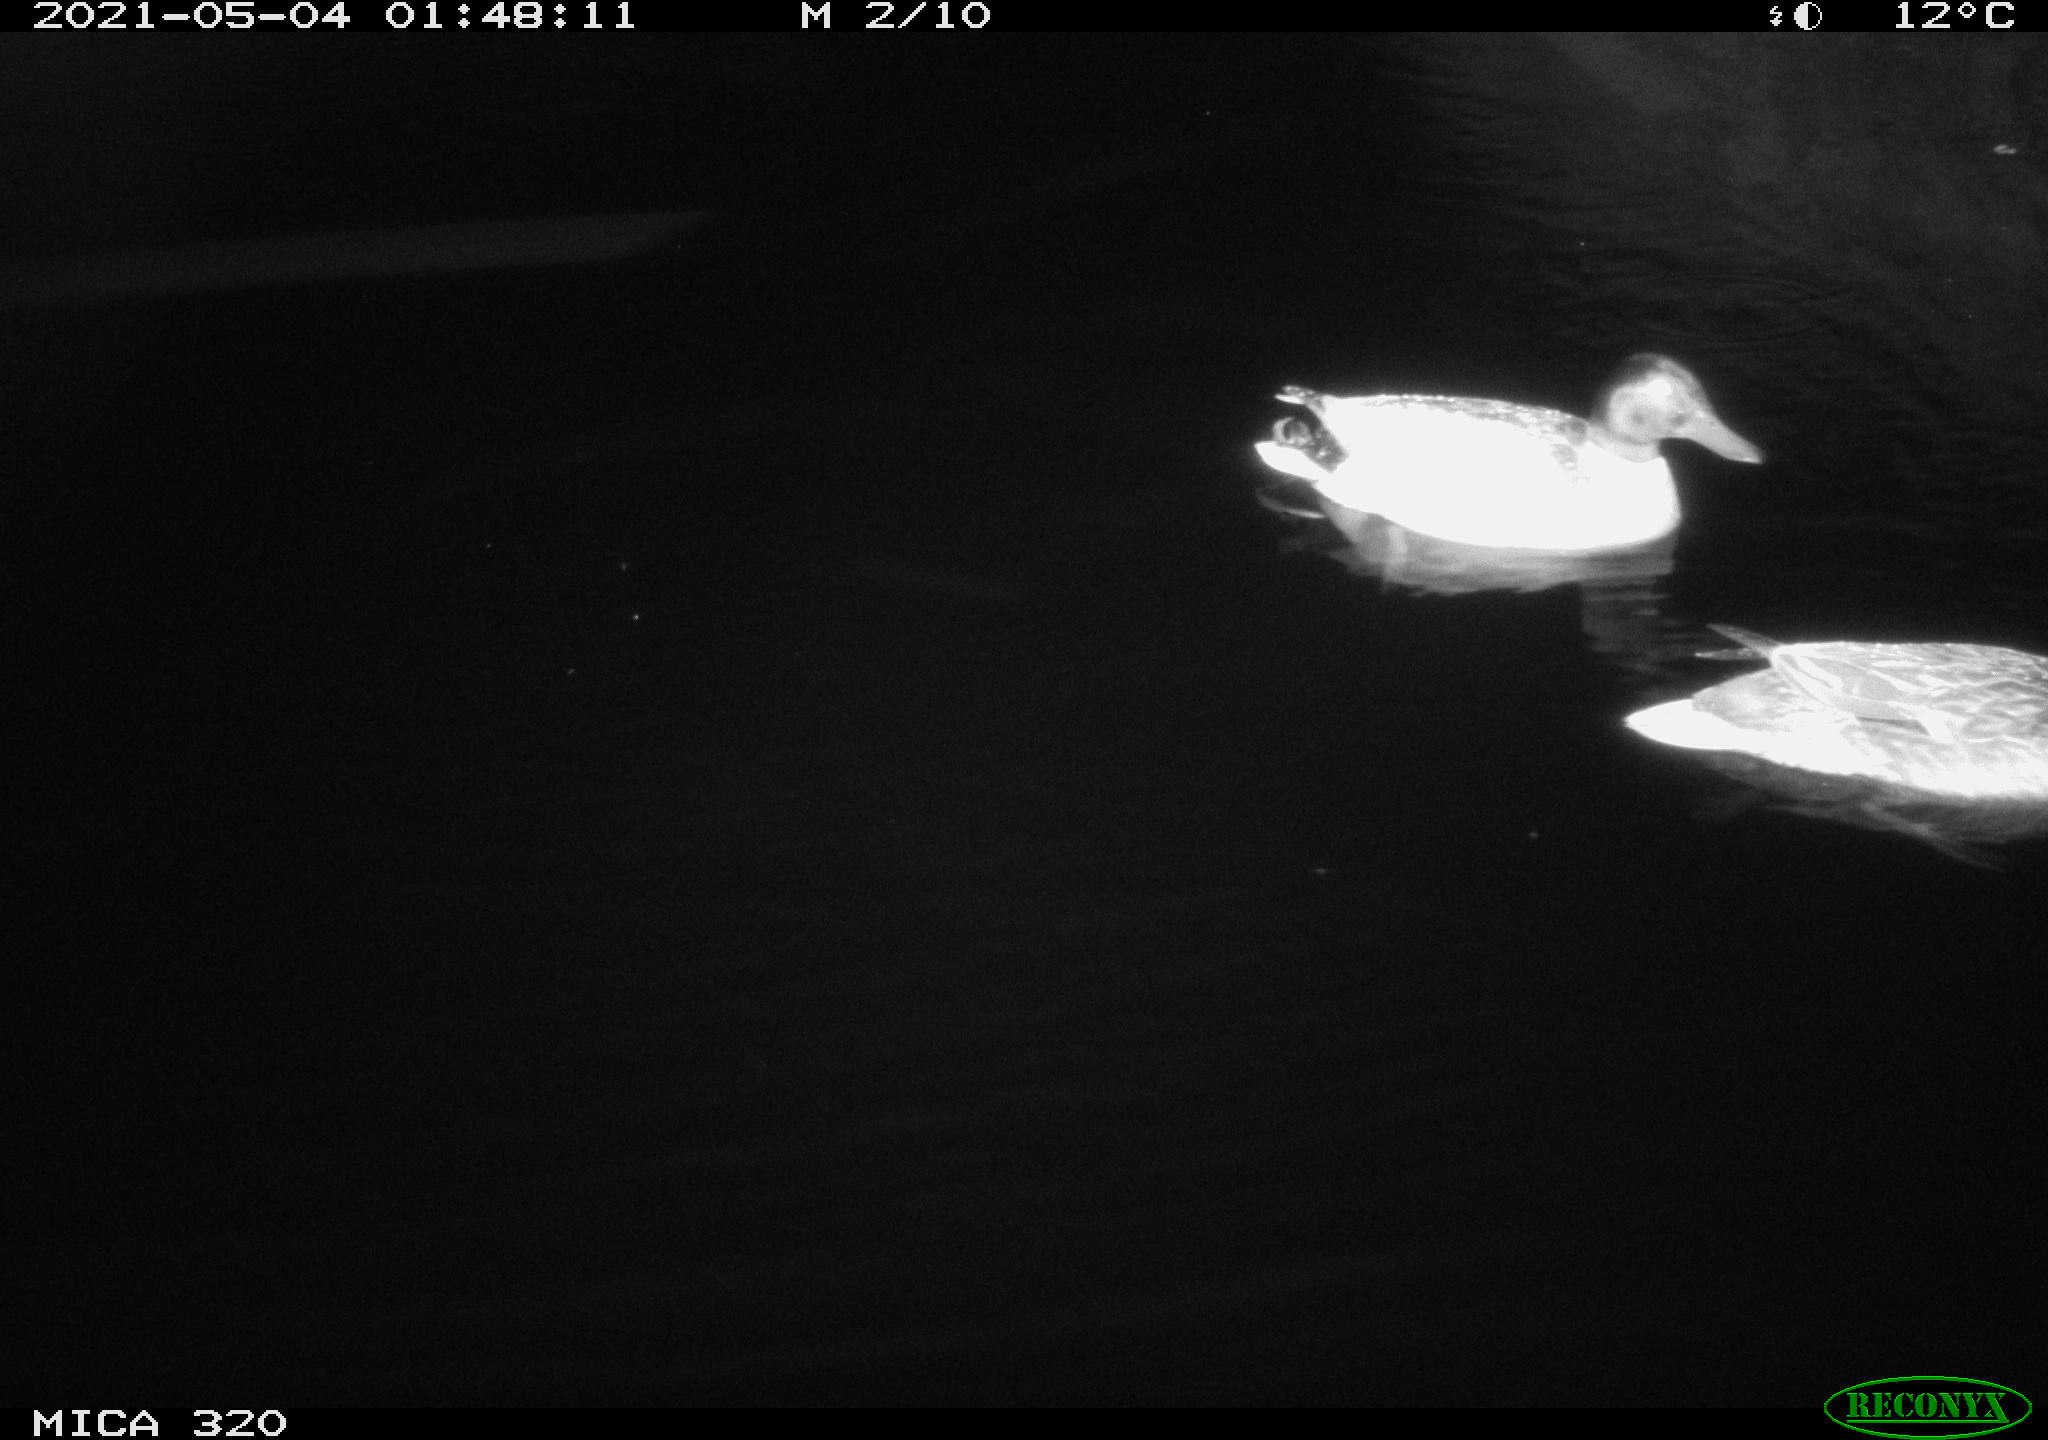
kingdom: Animalia
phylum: Chordata
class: Aves
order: Anseriformes
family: Anatidae
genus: Anas
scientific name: Anas platyrhynchos
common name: Mallard
